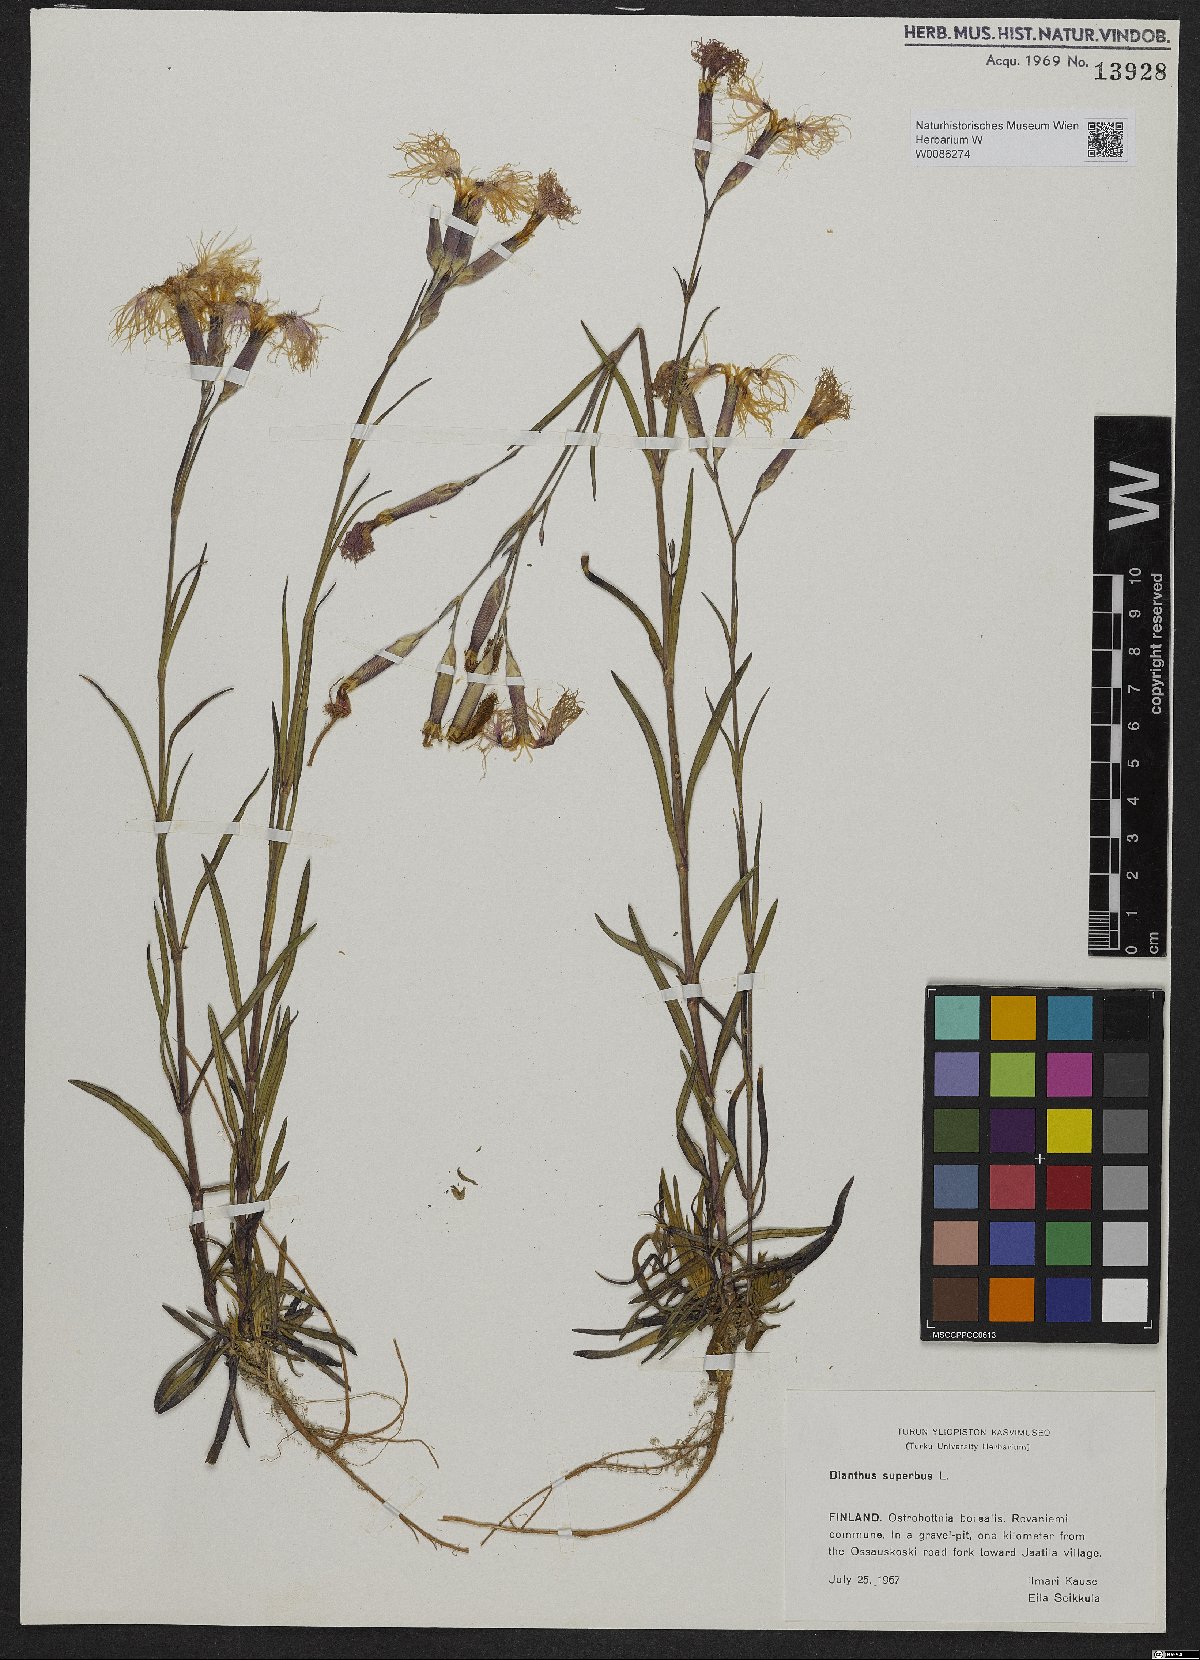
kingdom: Plantae
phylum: Tracheophyta
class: Magnoliopsida
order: Caryophyllales
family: Caryophyllaceae
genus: Dianthus
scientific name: Dianthus superbus
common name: Fringed pink
